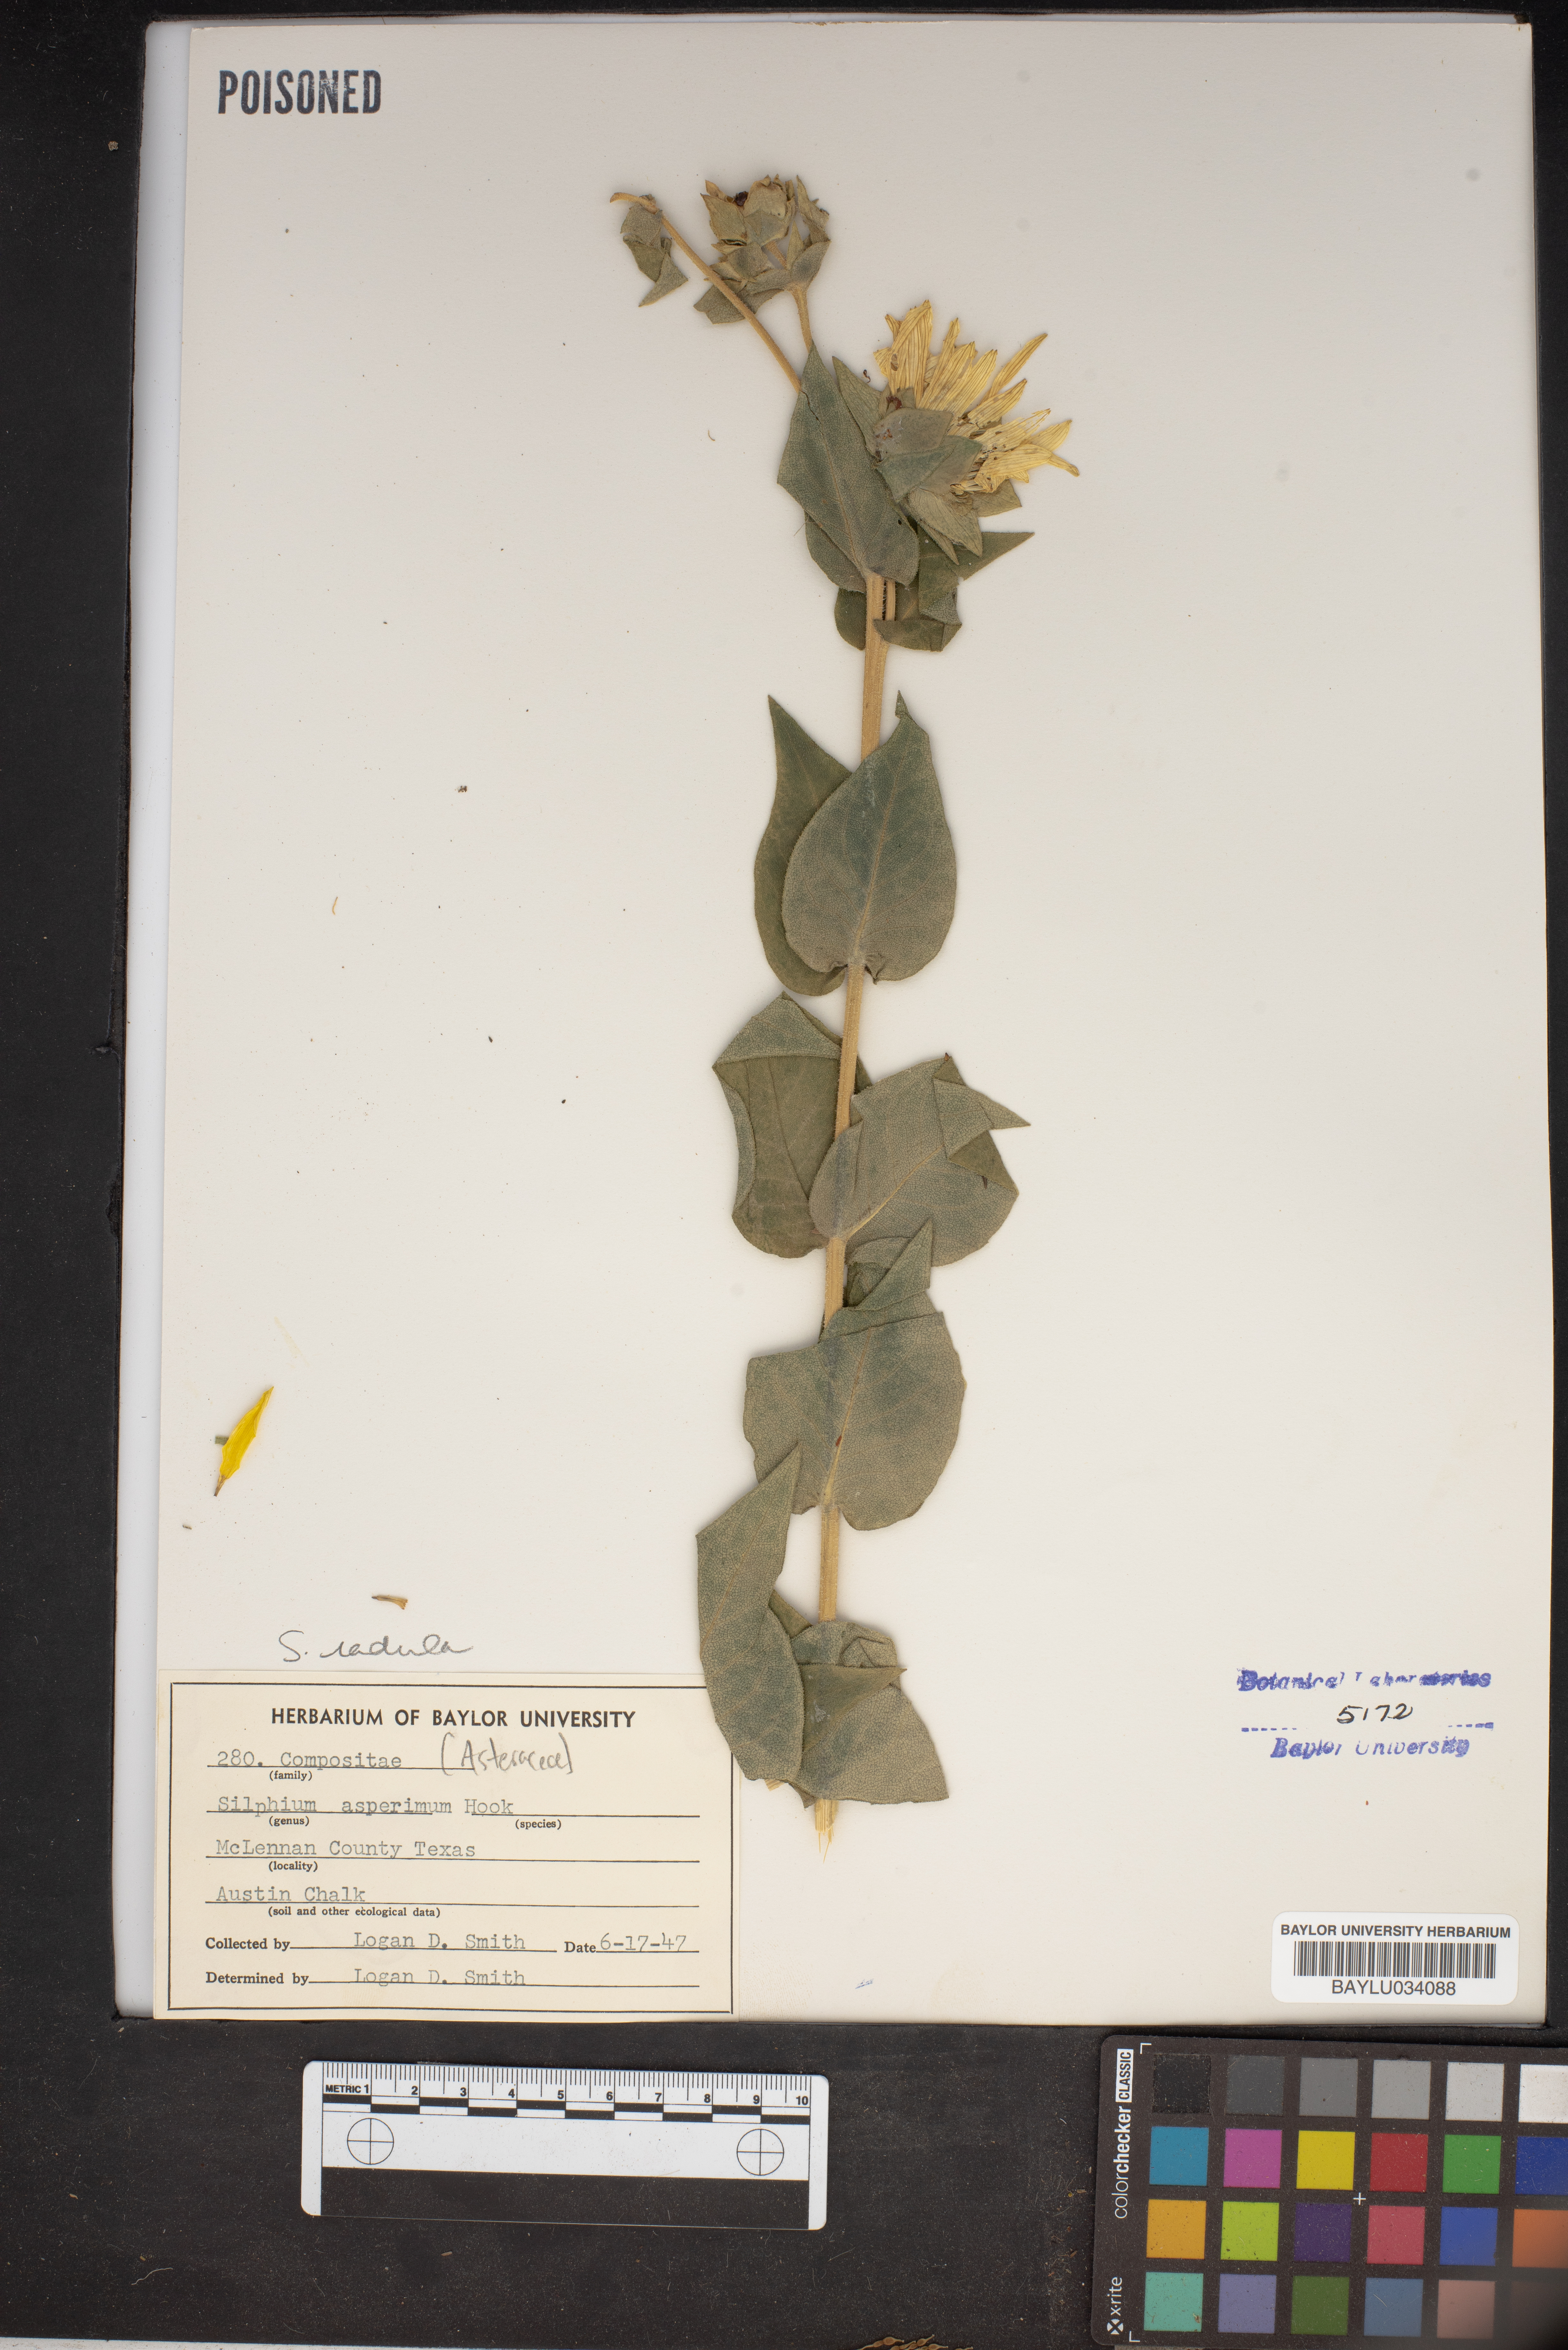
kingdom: Plantae
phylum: Tracheophyta
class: Magnoliopsida
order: Asterales
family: Asteraceae
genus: Silphium
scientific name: Silphium asperrimum
